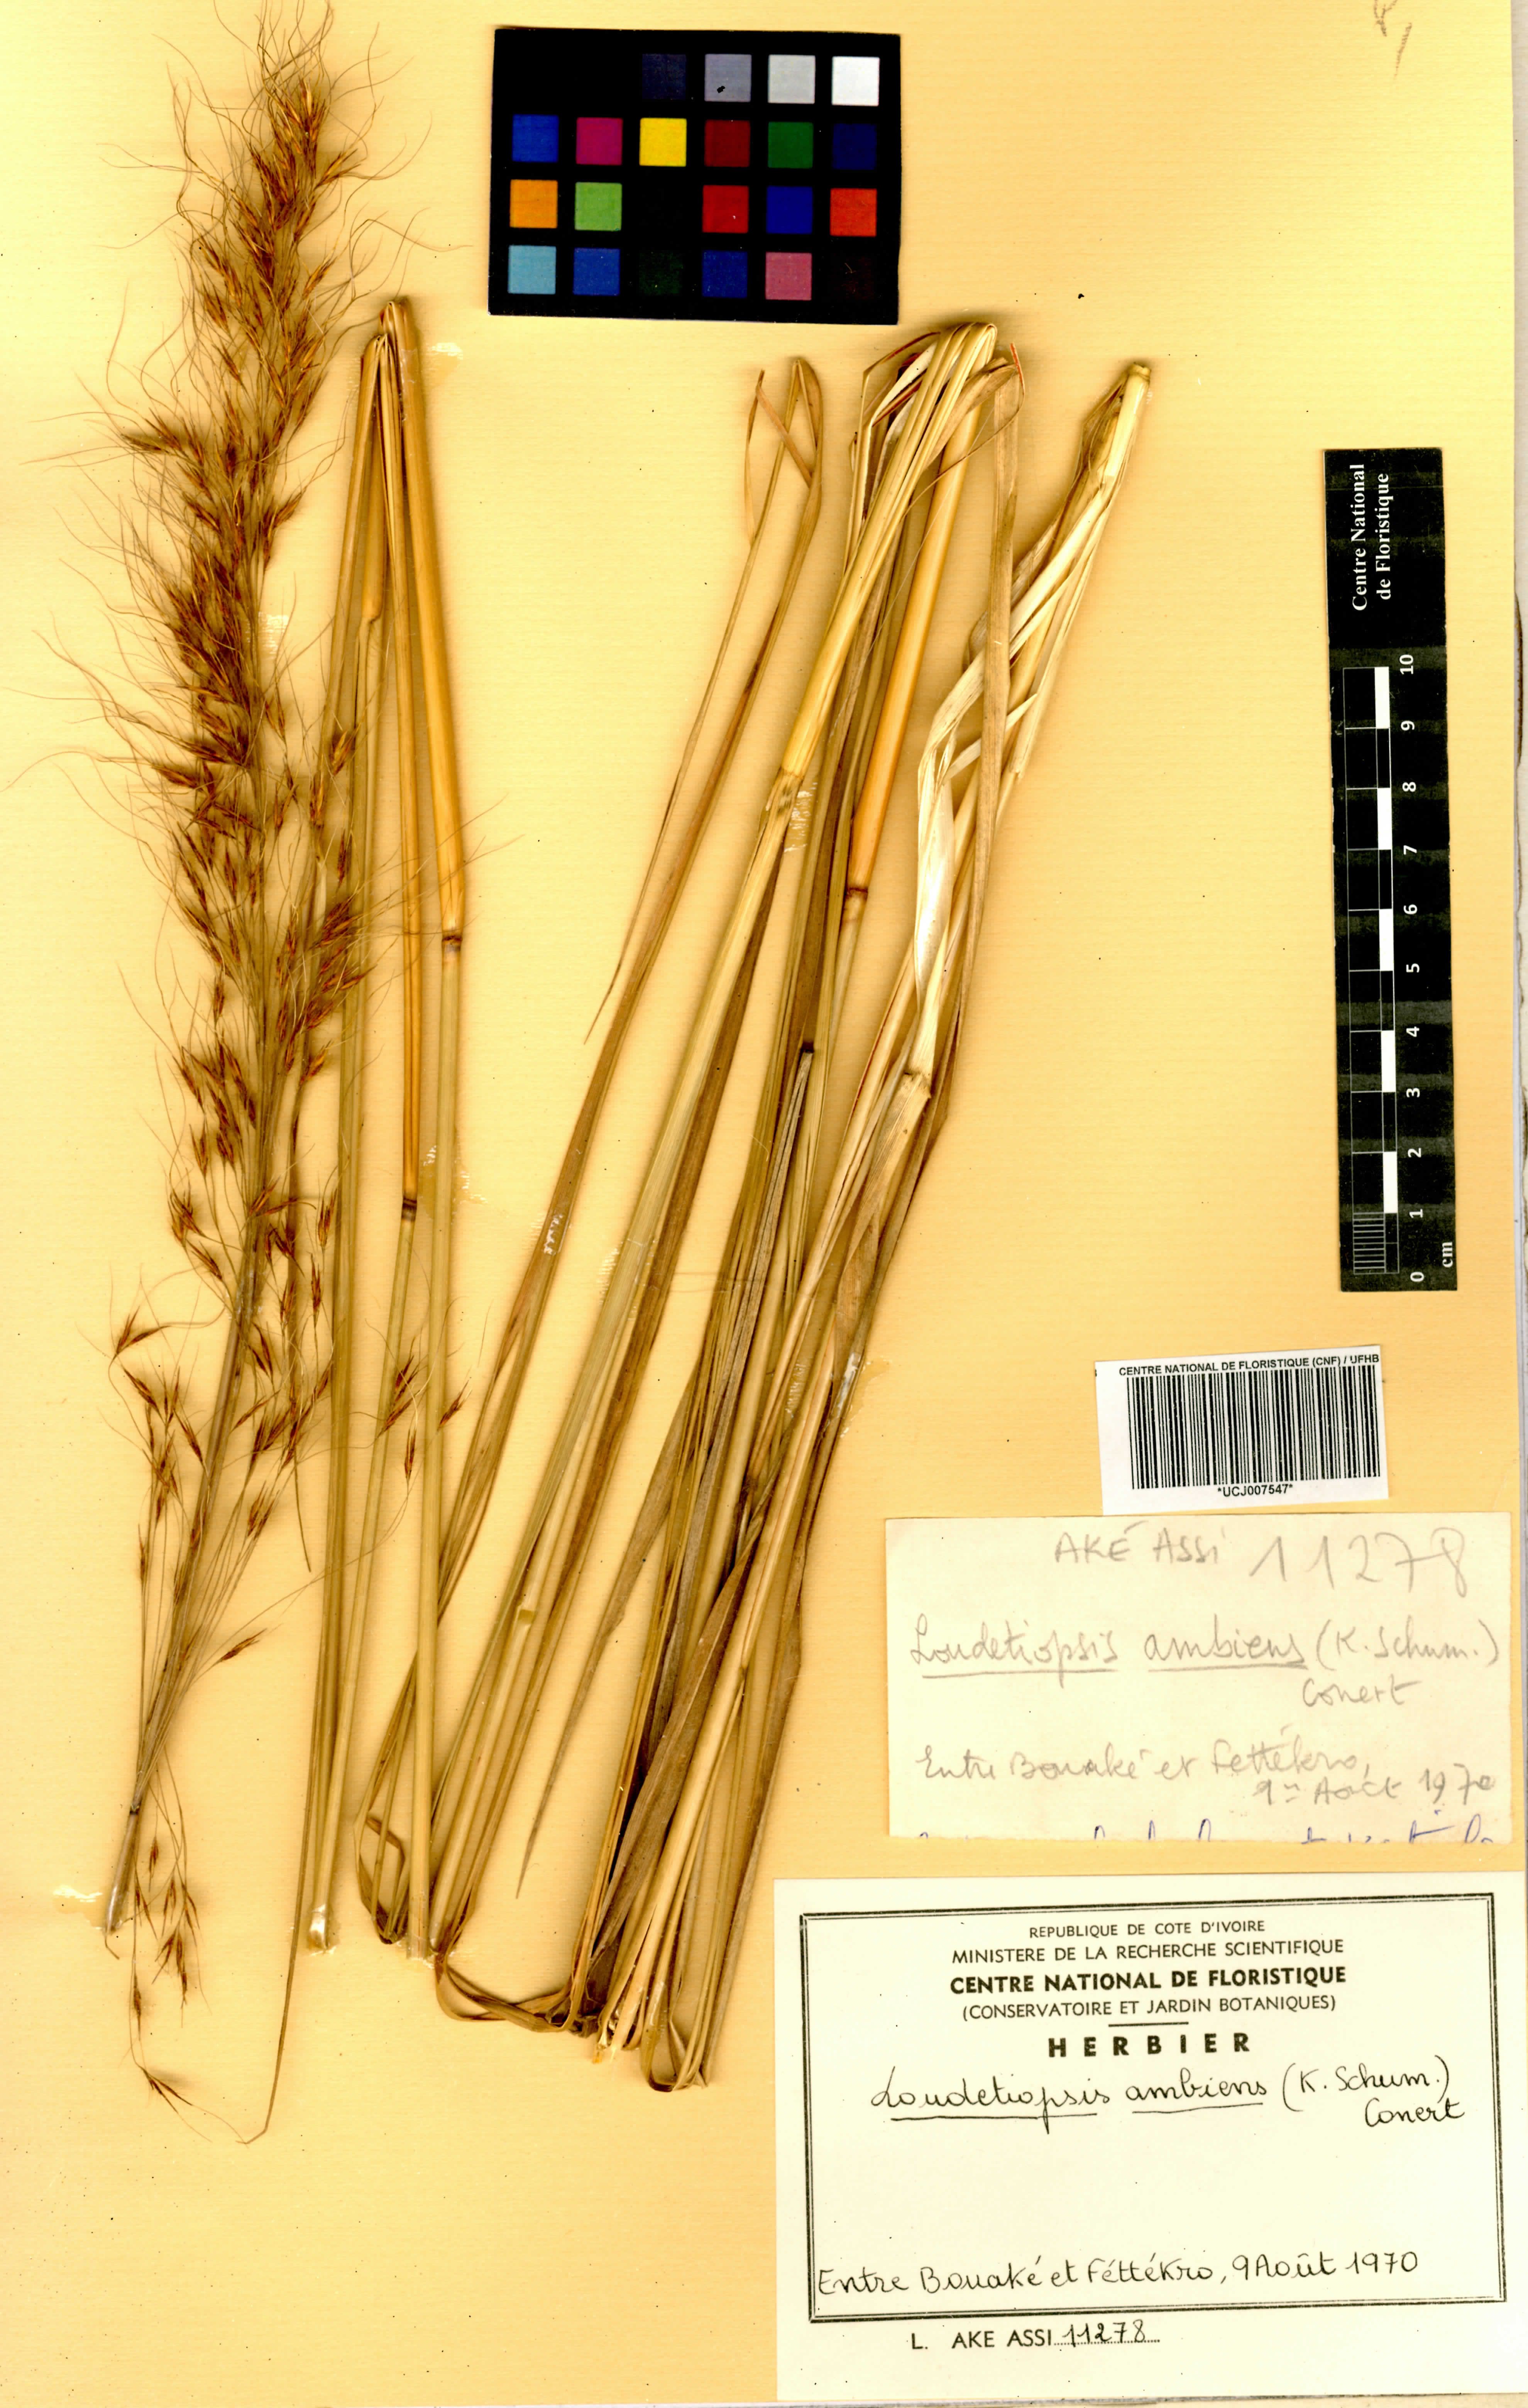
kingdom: Plantae
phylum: Tracheophyta
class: Liliopsida
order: Poales
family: Poaceae
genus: Loudetiopsis
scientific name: Loudetiopsis ambiens
